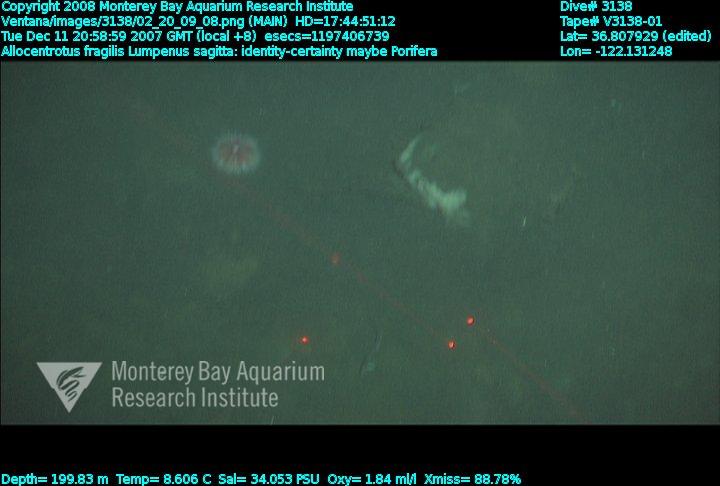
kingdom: Animalia
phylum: Porifera
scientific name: Porifera
